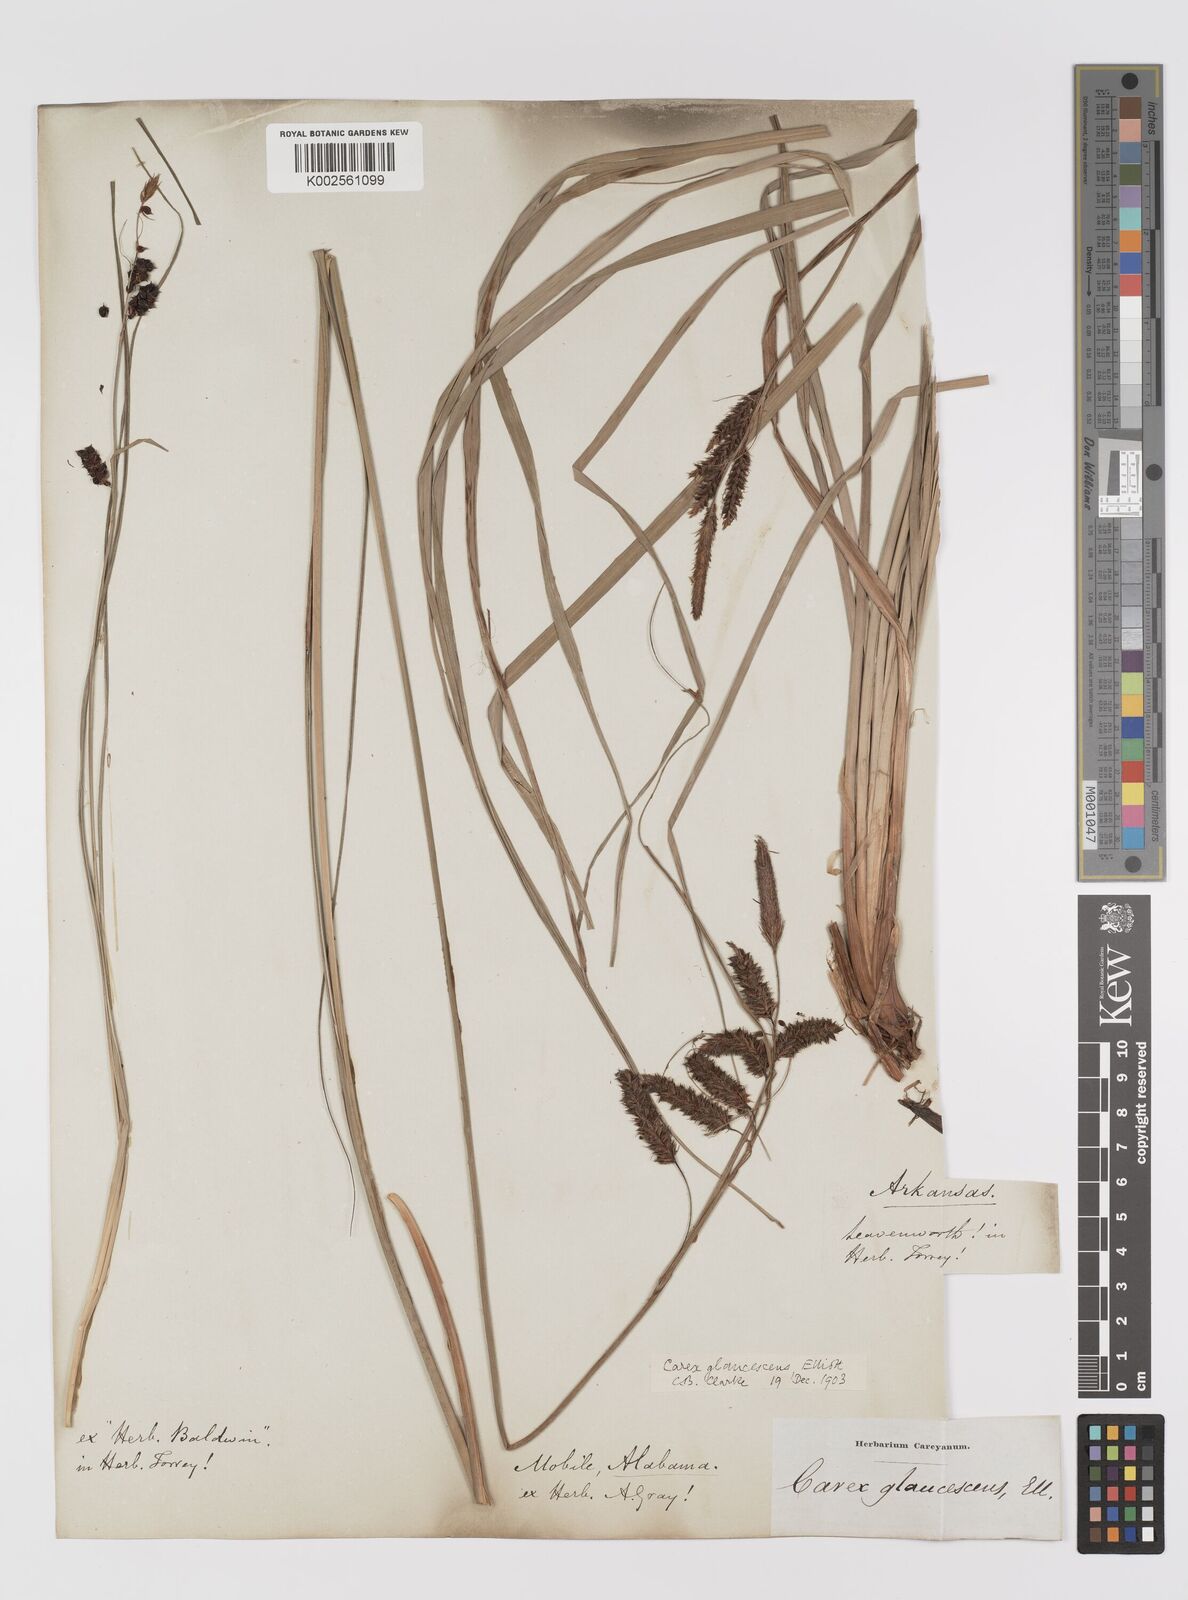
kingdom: Plantae
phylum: Tracheophyta
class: Liliopsida
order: Poales
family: Cyperaceae
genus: Carex
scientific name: Carex glaucescens
